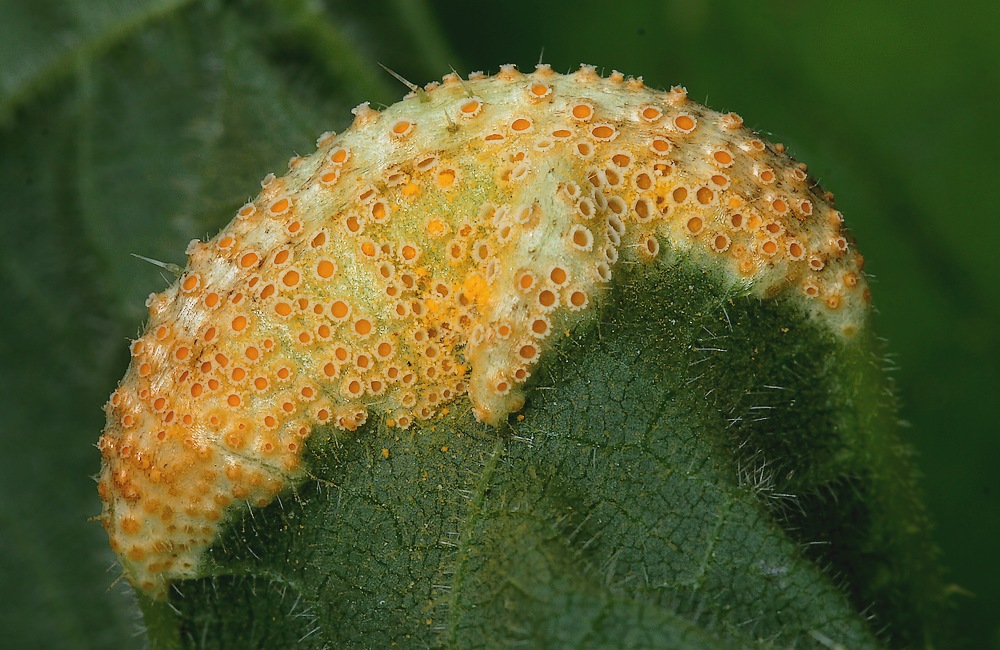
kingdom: Fungi
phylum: Basidiomycota
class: Pucciniomycetes
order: Pucciniales
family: Pucciniaceae
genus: Puccinia
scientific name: Puccinia urticata
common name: nældegalle-tvecellerust
